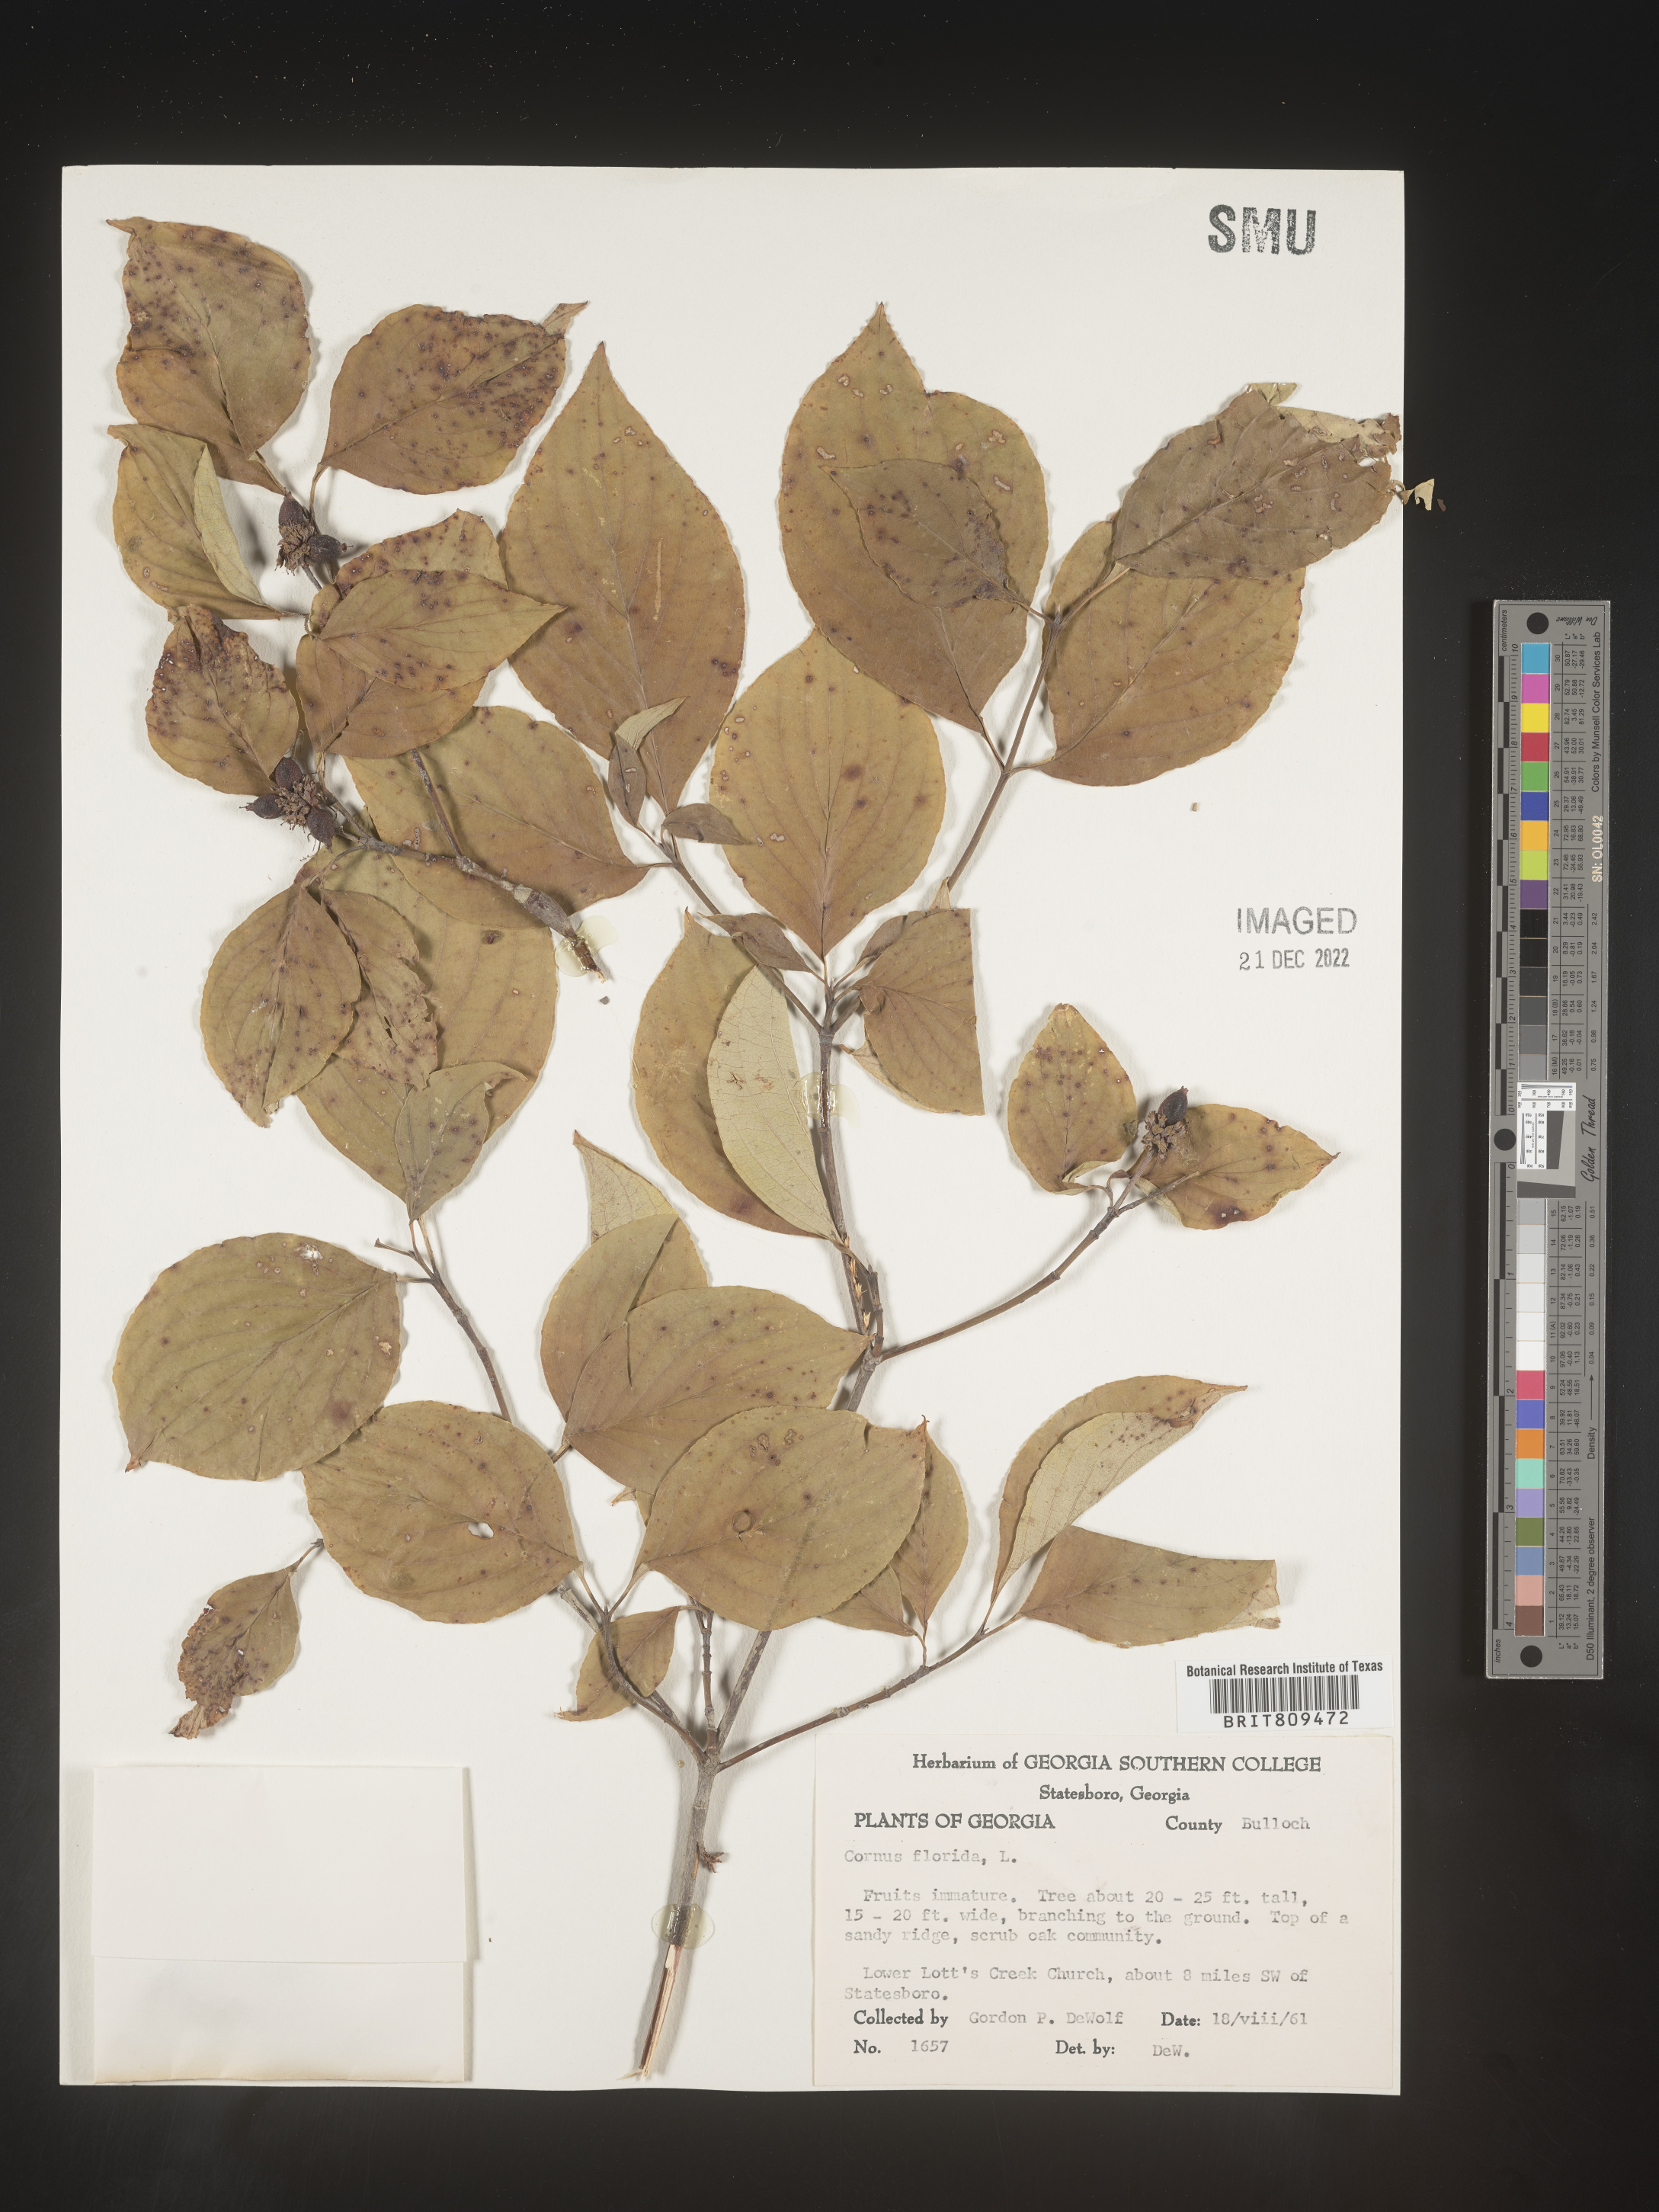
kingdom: Plantae
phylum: Tracheophyta
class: Magnoliopsida
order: Cornales
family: Cornaceae
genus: Cornus
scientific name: Cornus florida
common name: Flowering dogwood
